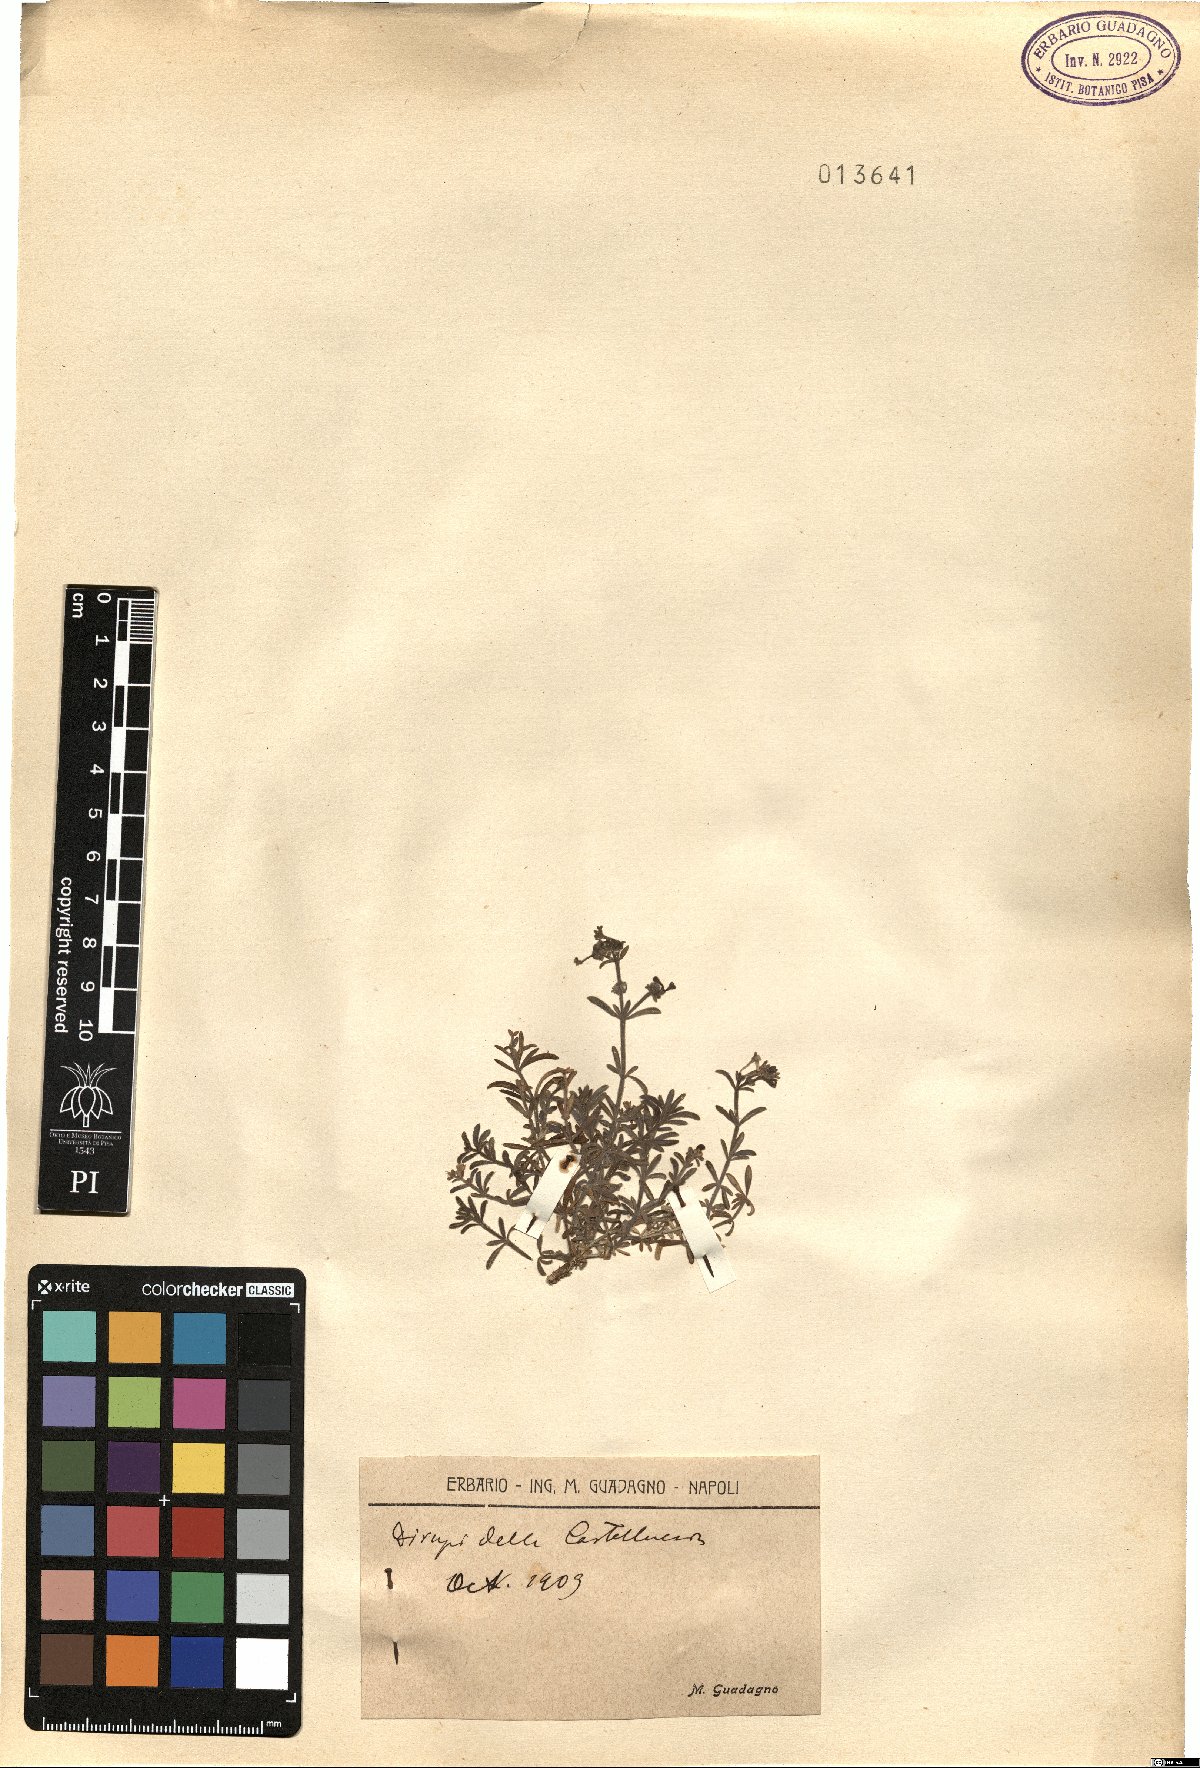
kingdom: Plantae
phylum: Tracheophyta
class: Magnoliopsida
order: Gentianales
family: Rubiaceae
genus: Asperula
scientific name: Asperula
